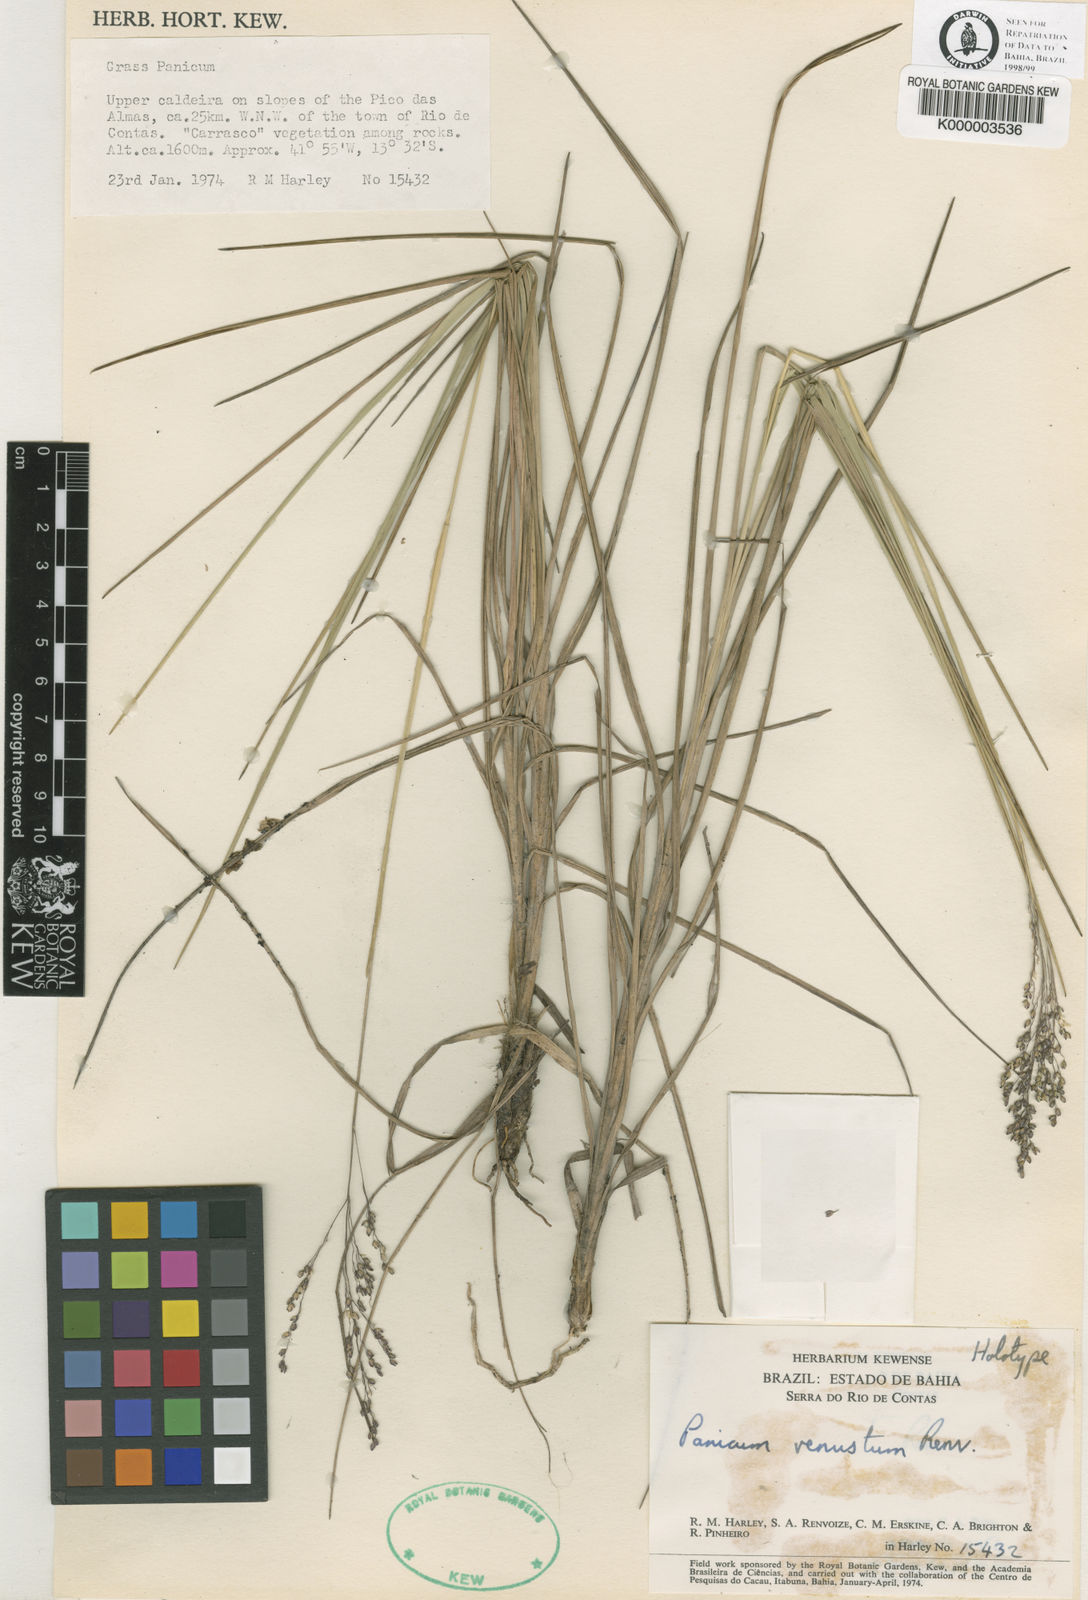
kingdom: Plantae
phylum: Tracheophyta
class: Liliopsida
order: Poales
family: Poaceae
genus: Apochloa
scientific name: Apochloa euprepes
